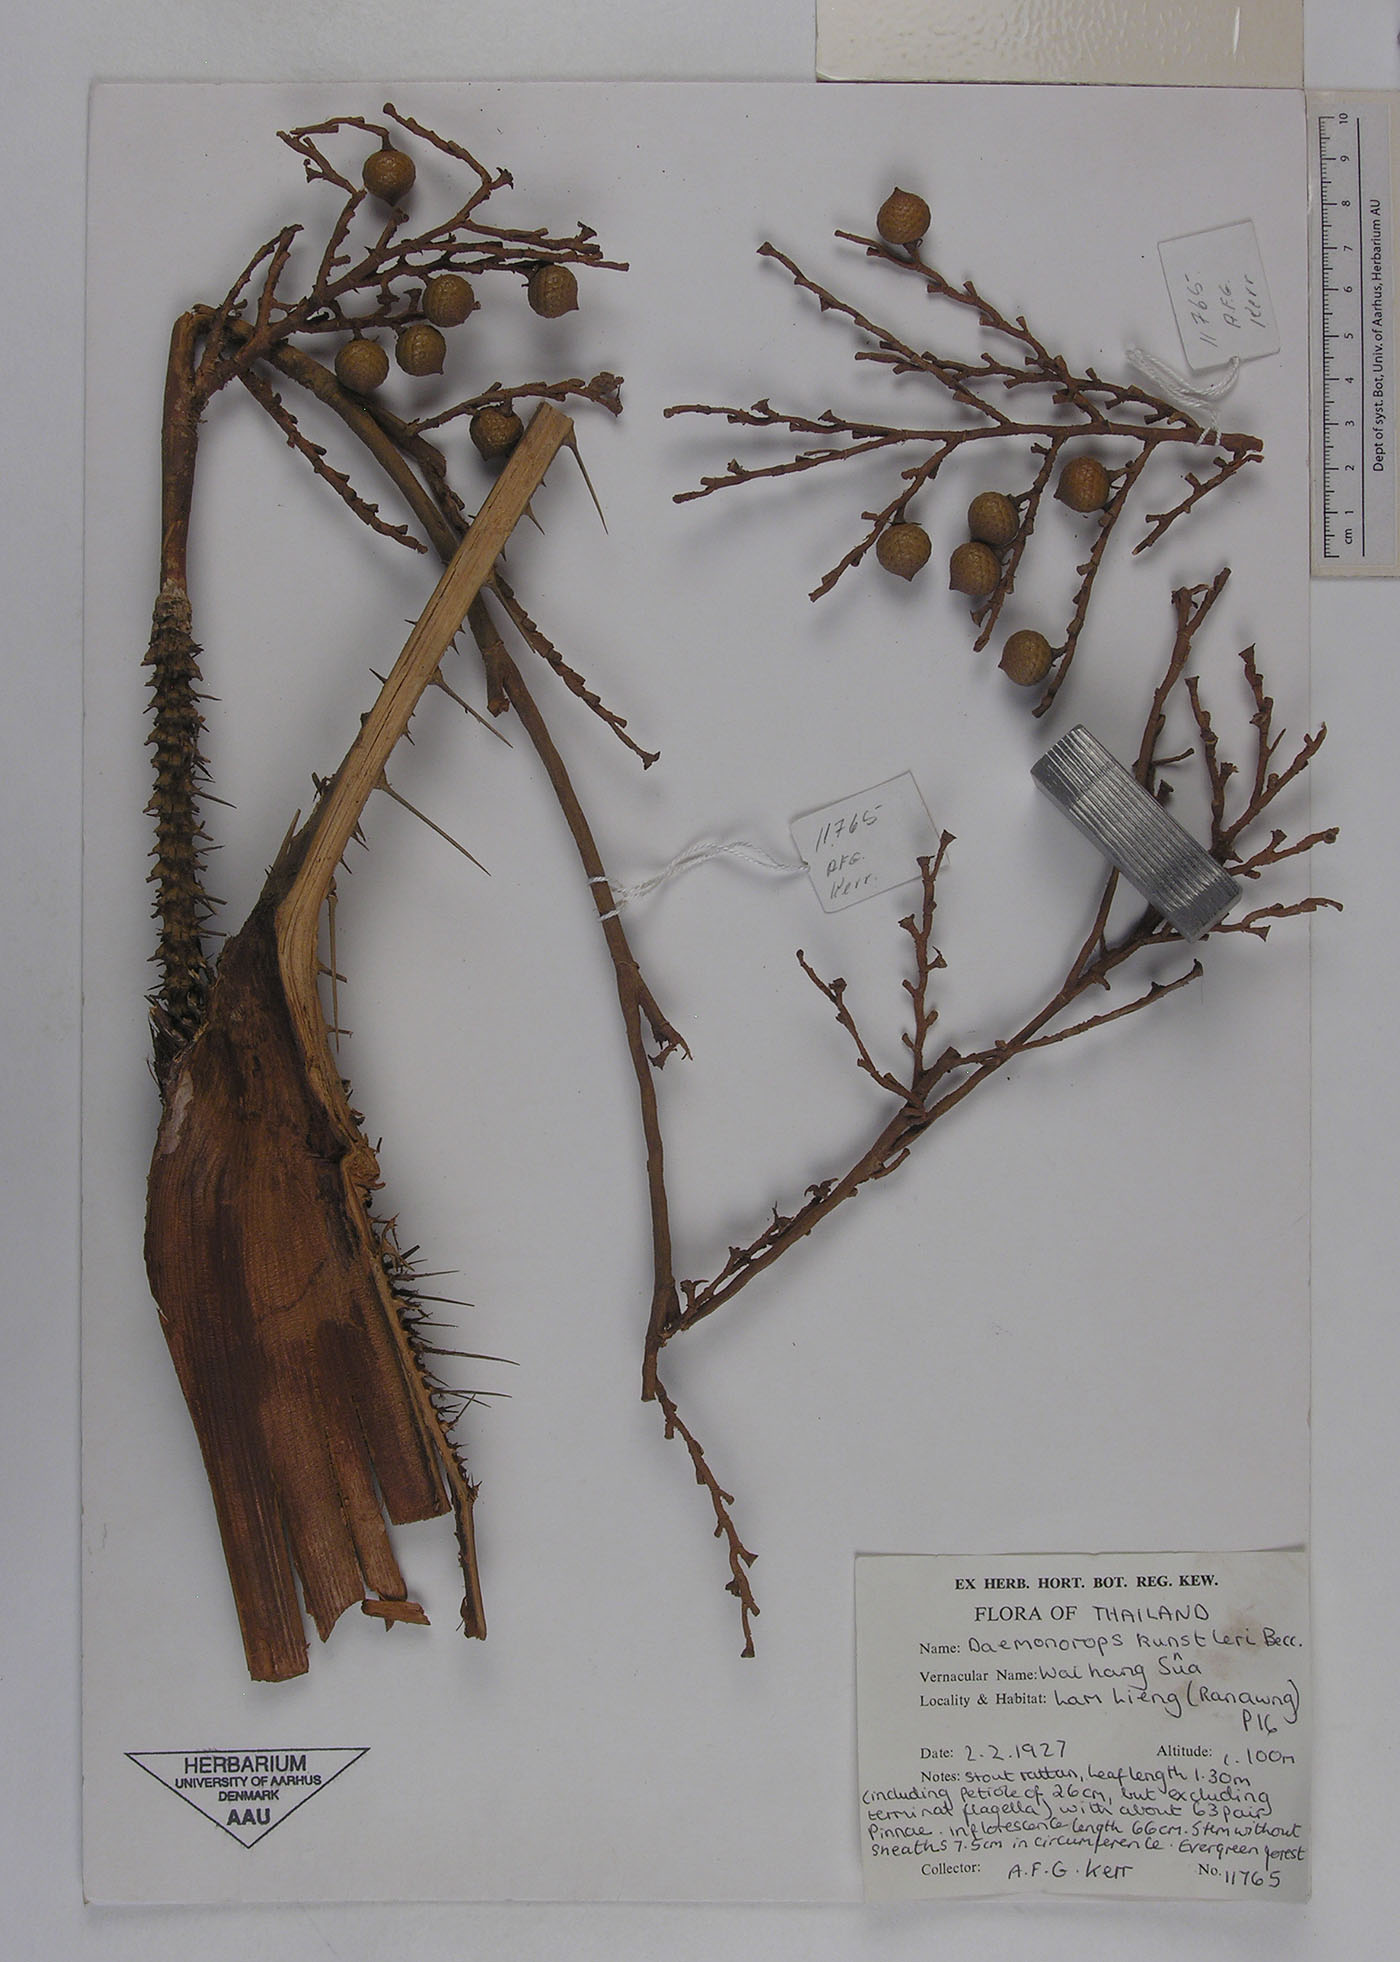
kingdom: Plantae
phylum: Tracheophyta
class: Liliopsida
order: Arecales
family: Arecaceae
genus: Calamus
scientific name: Calamus kunstleri
